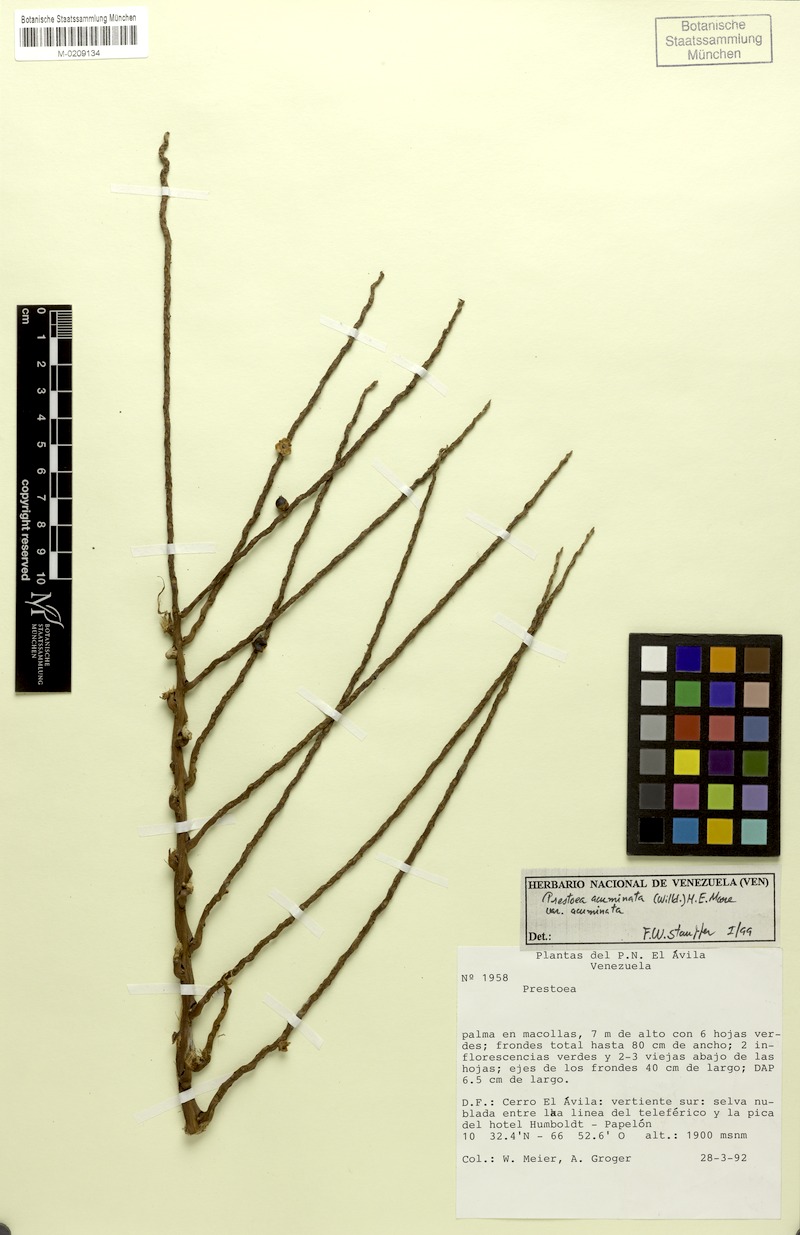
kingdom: Plantae
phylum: Tracheophyta
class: Liliopsida
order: Arecales
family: Arecaceae
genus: Prestoea
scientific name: Prestoea acuminata
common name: Sierran palm
